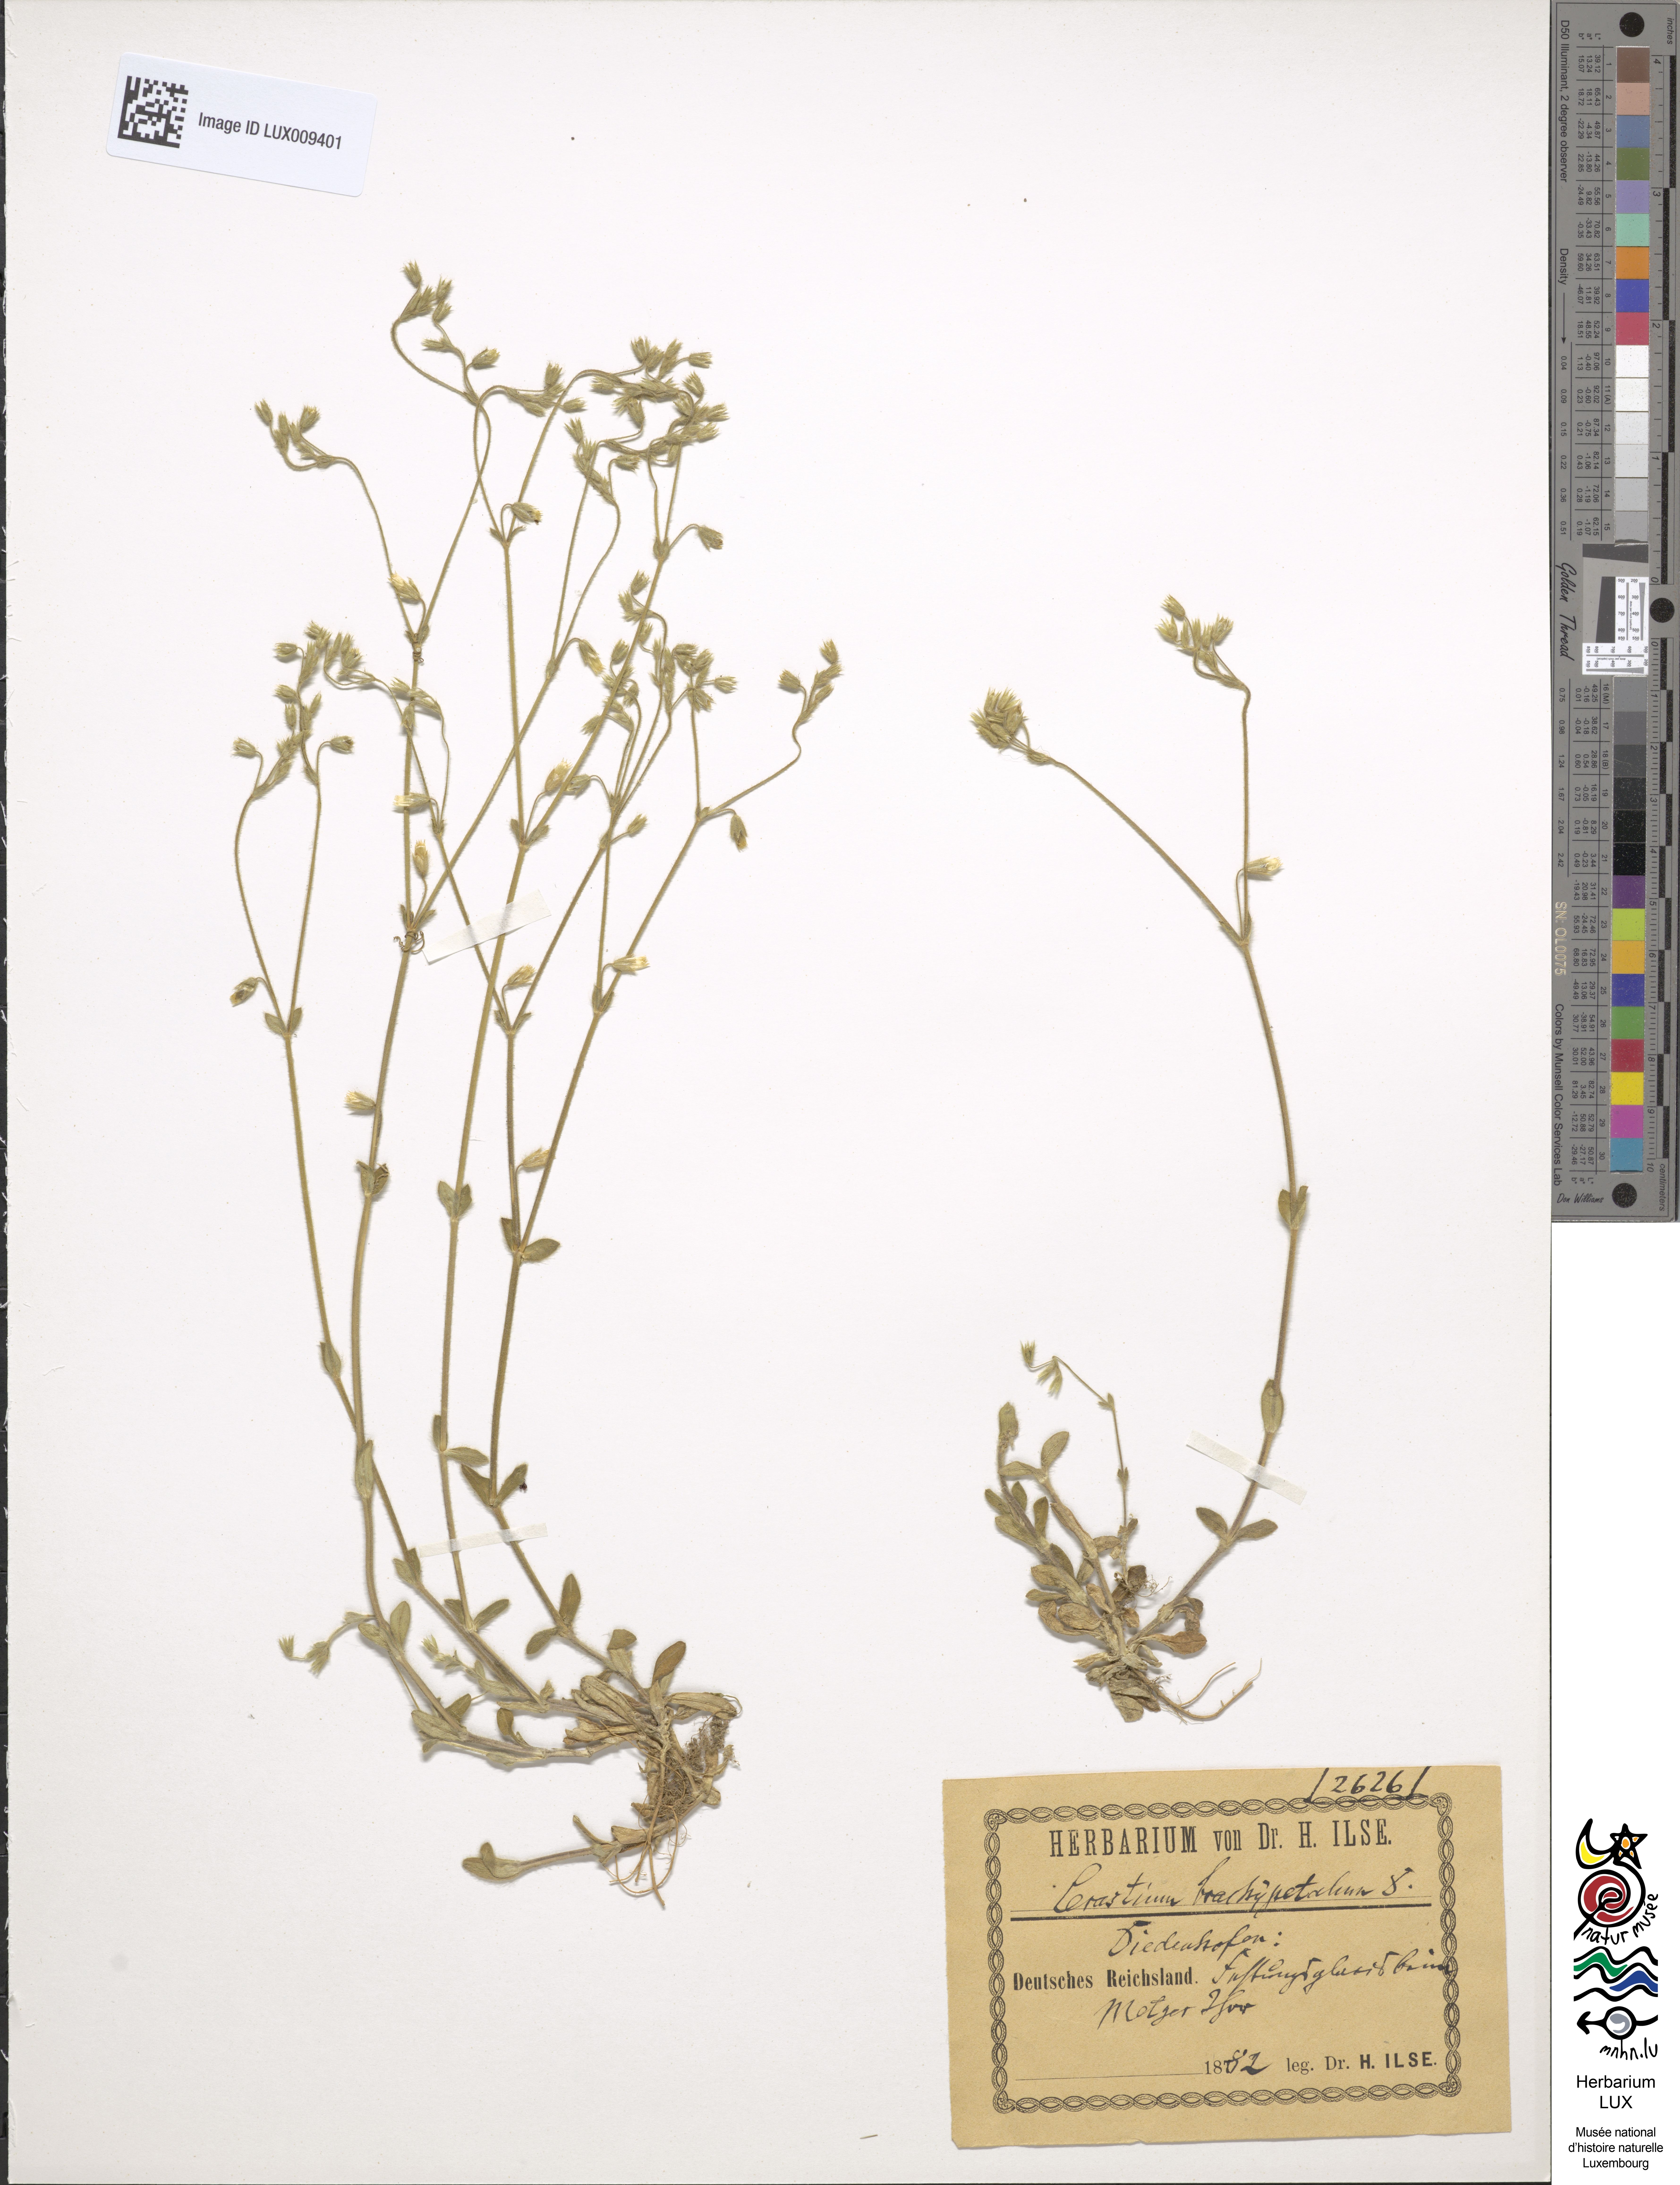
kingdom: Plantae
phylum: Tracheophyta
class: Magnoliopsida
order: Caryophyllales
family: Caryophyllaceae
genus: Cerastium
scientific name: Cerastium brachypetalum
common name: Grey mouse-ear
